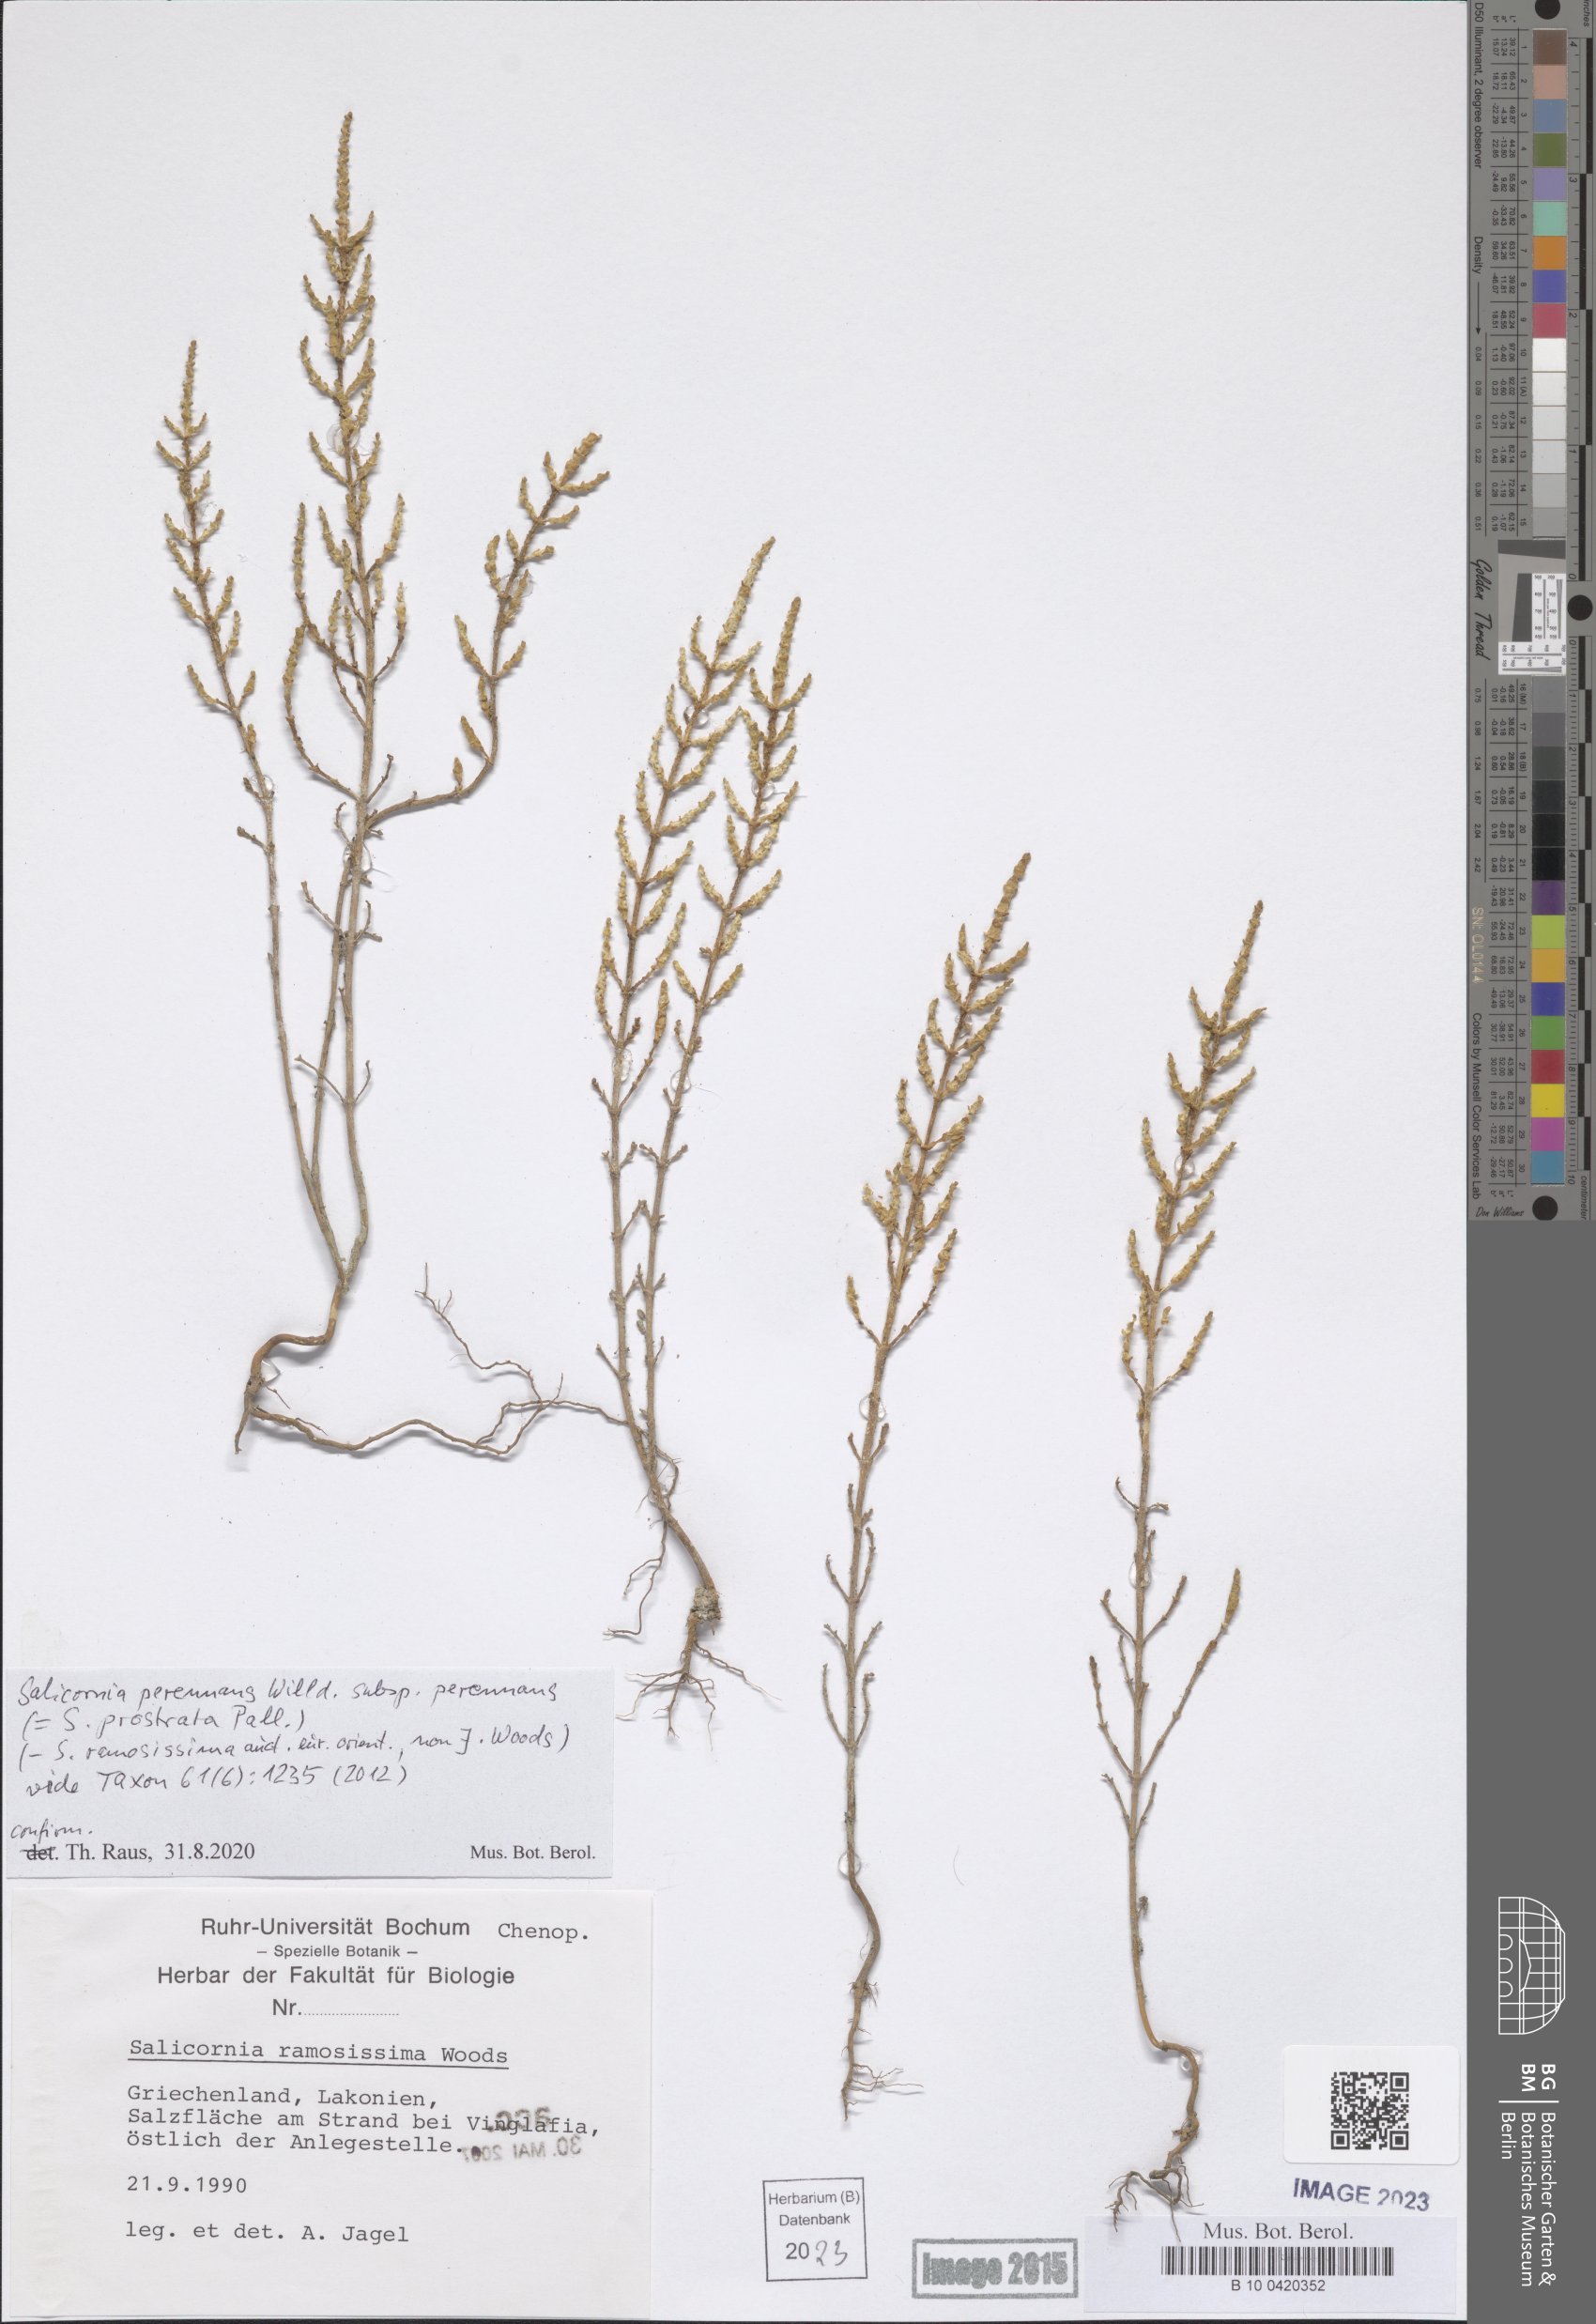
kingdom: Plantae
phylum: Tracheophyta
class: Magnoliopsida
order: Caryophyllales
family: Amaranthaceae
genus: Salicornia
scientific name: Salicornia perennans
